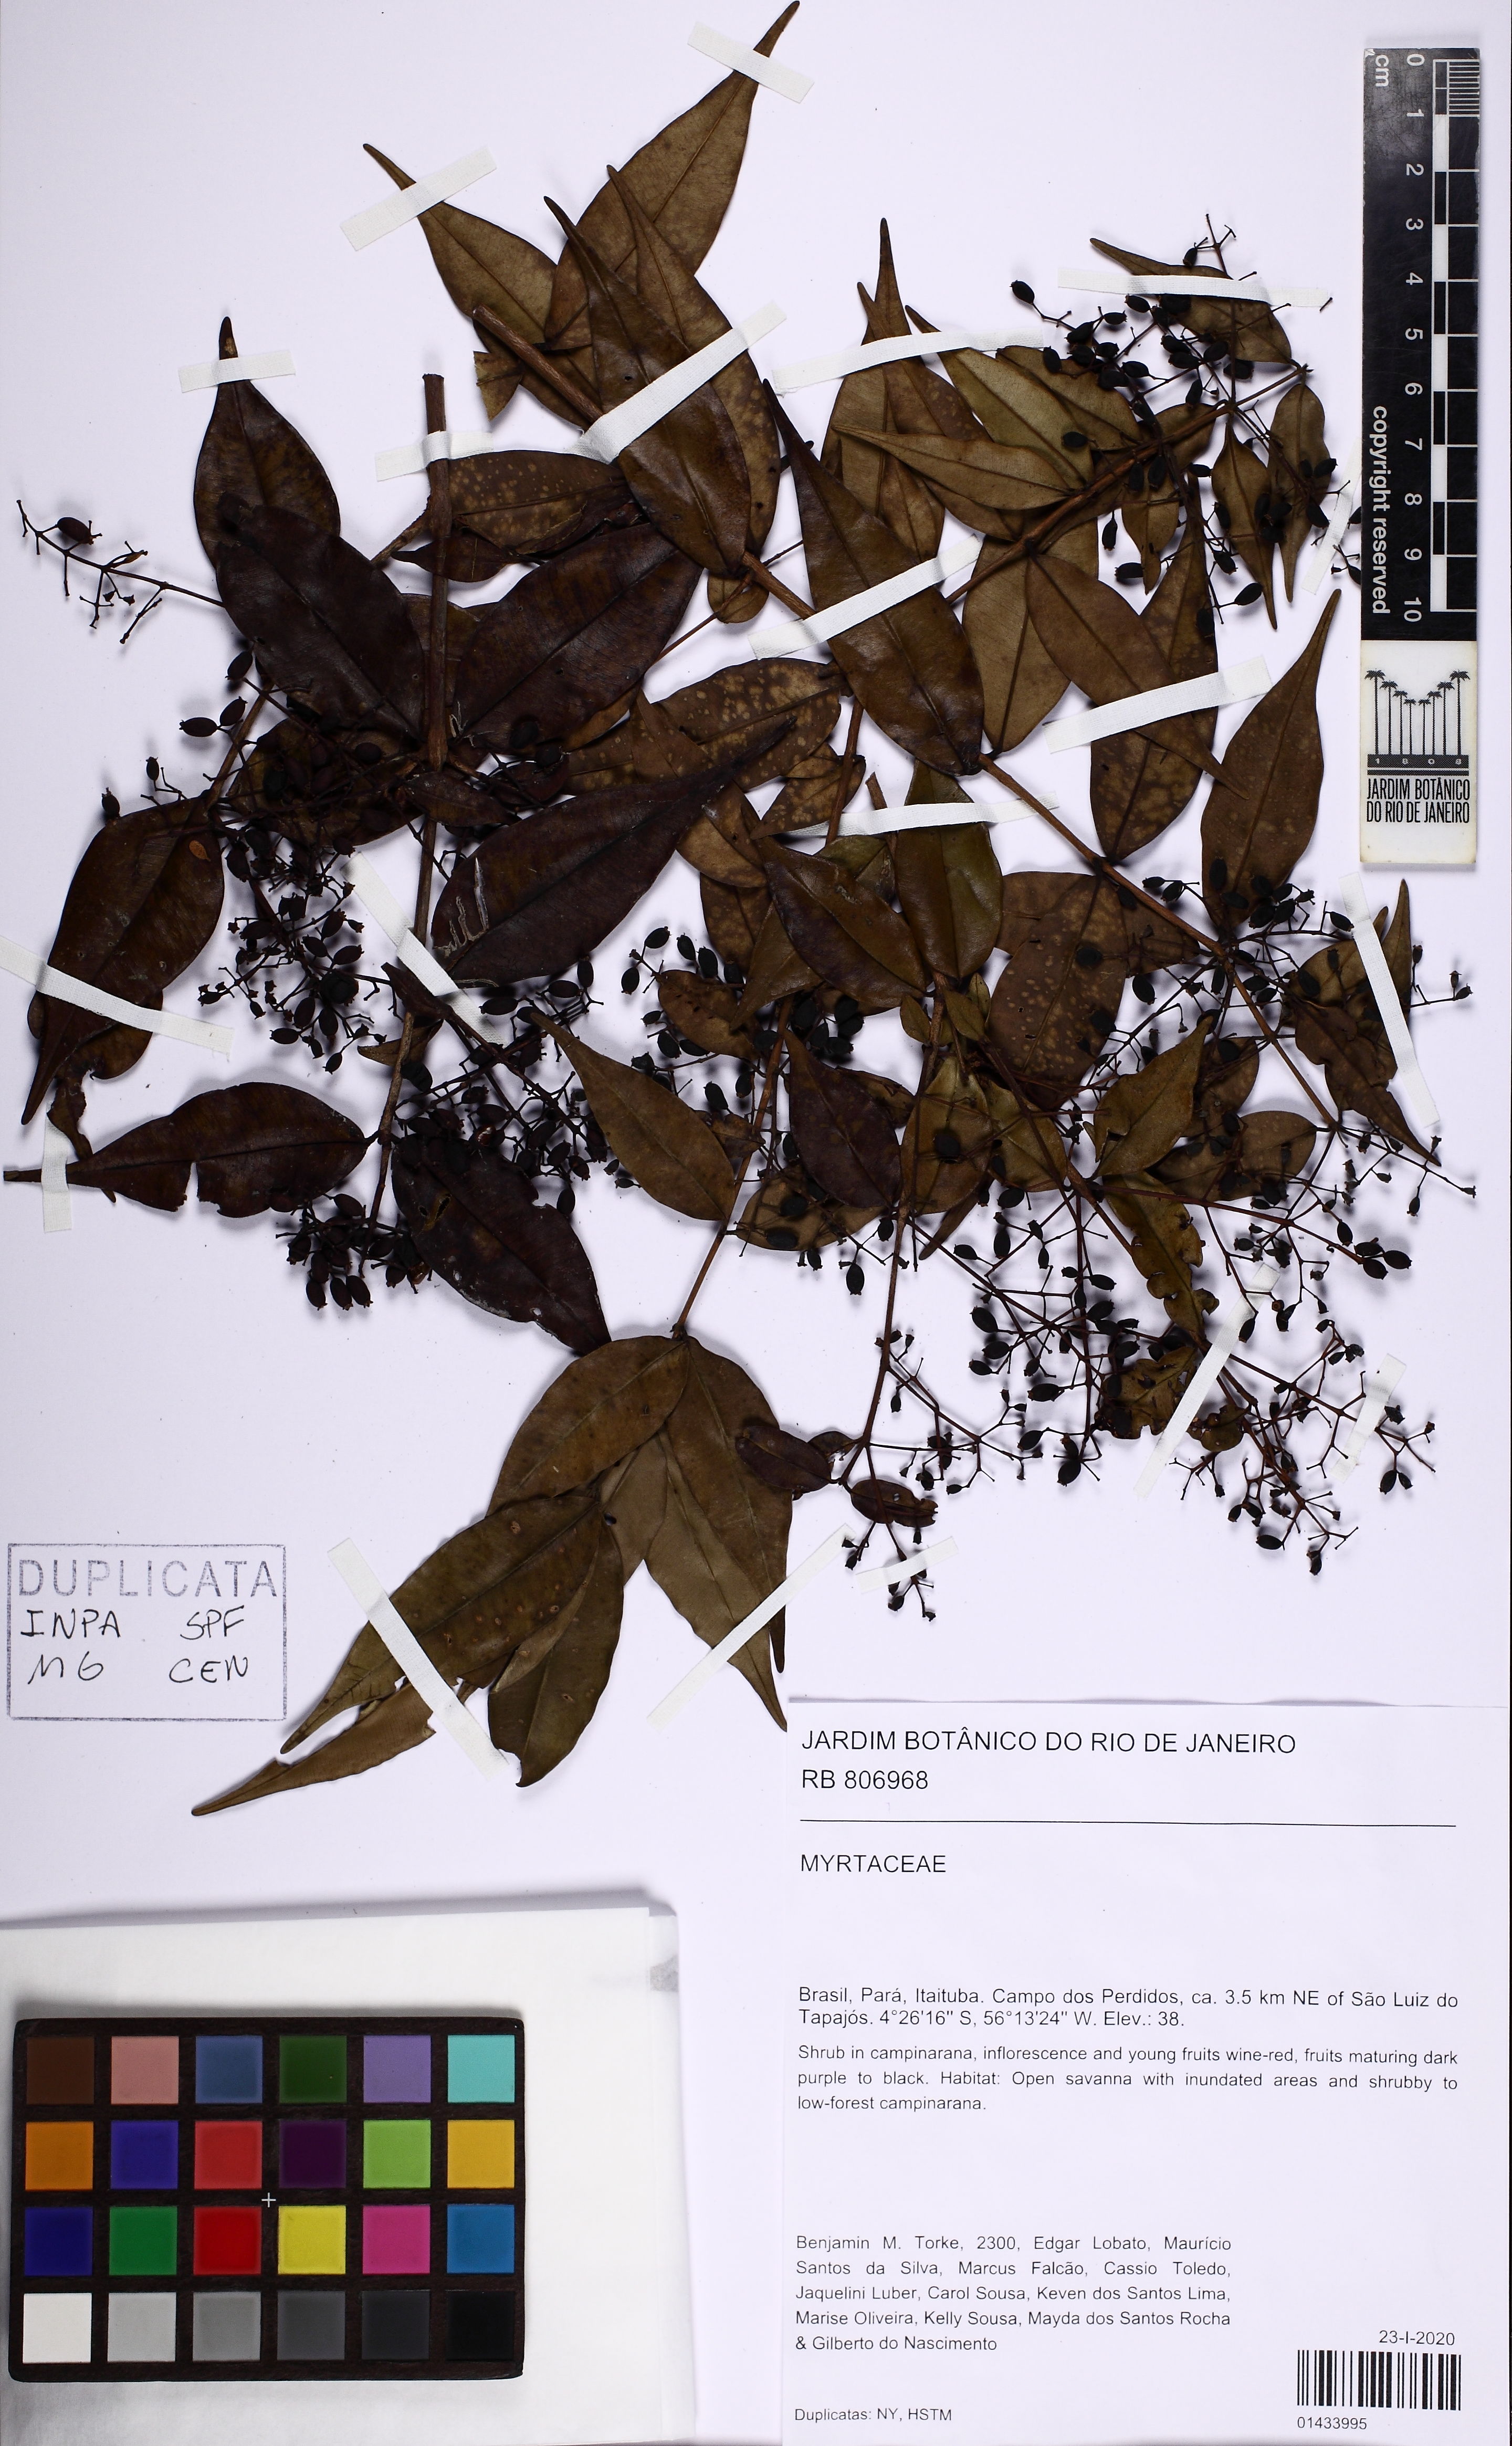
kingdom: Plantae
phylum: Tracheophyta
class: Magnoliopsida
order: Myrtales
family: Myrtaceae
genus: Myrcia
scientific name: Myrcia sylvatica
